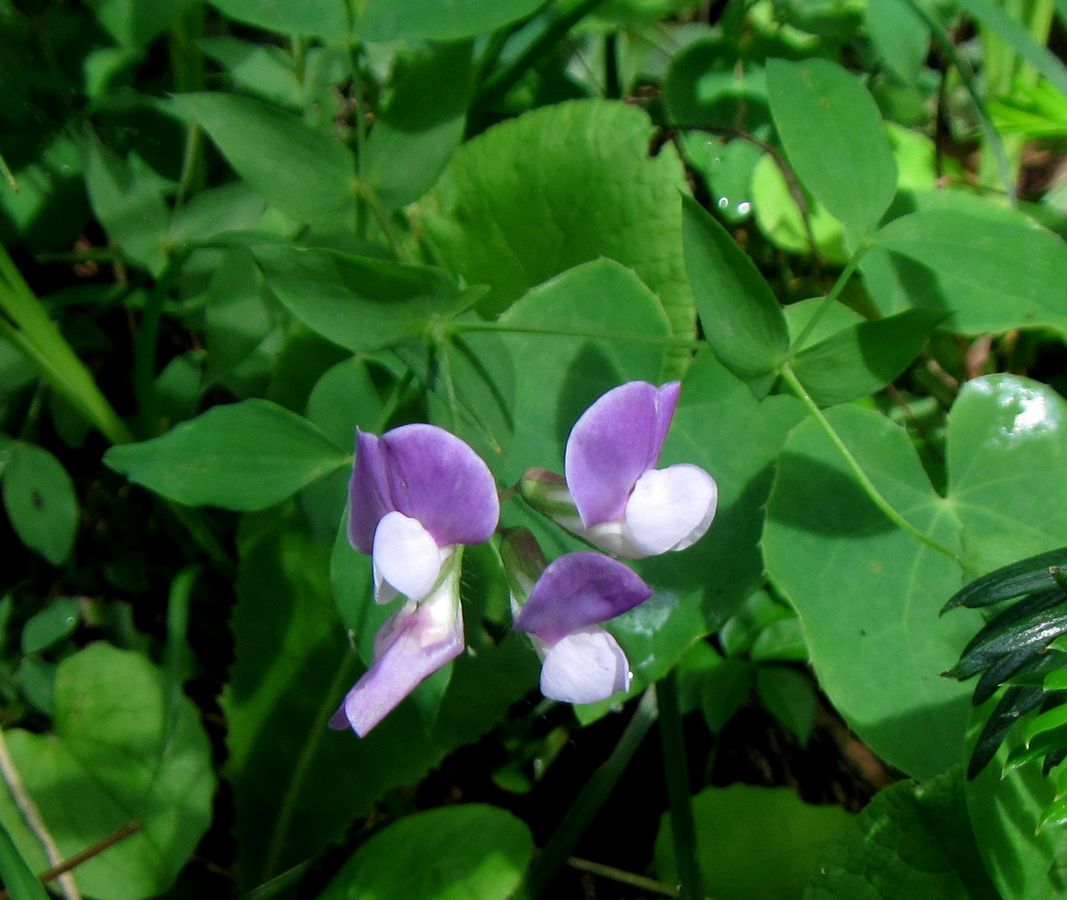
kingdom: Plantae
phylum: Tracheophyta
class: Magnoliopsida
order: Fabales
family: Fabaceae
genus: Lathyrus
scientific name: Lathyrus laxiflorus
